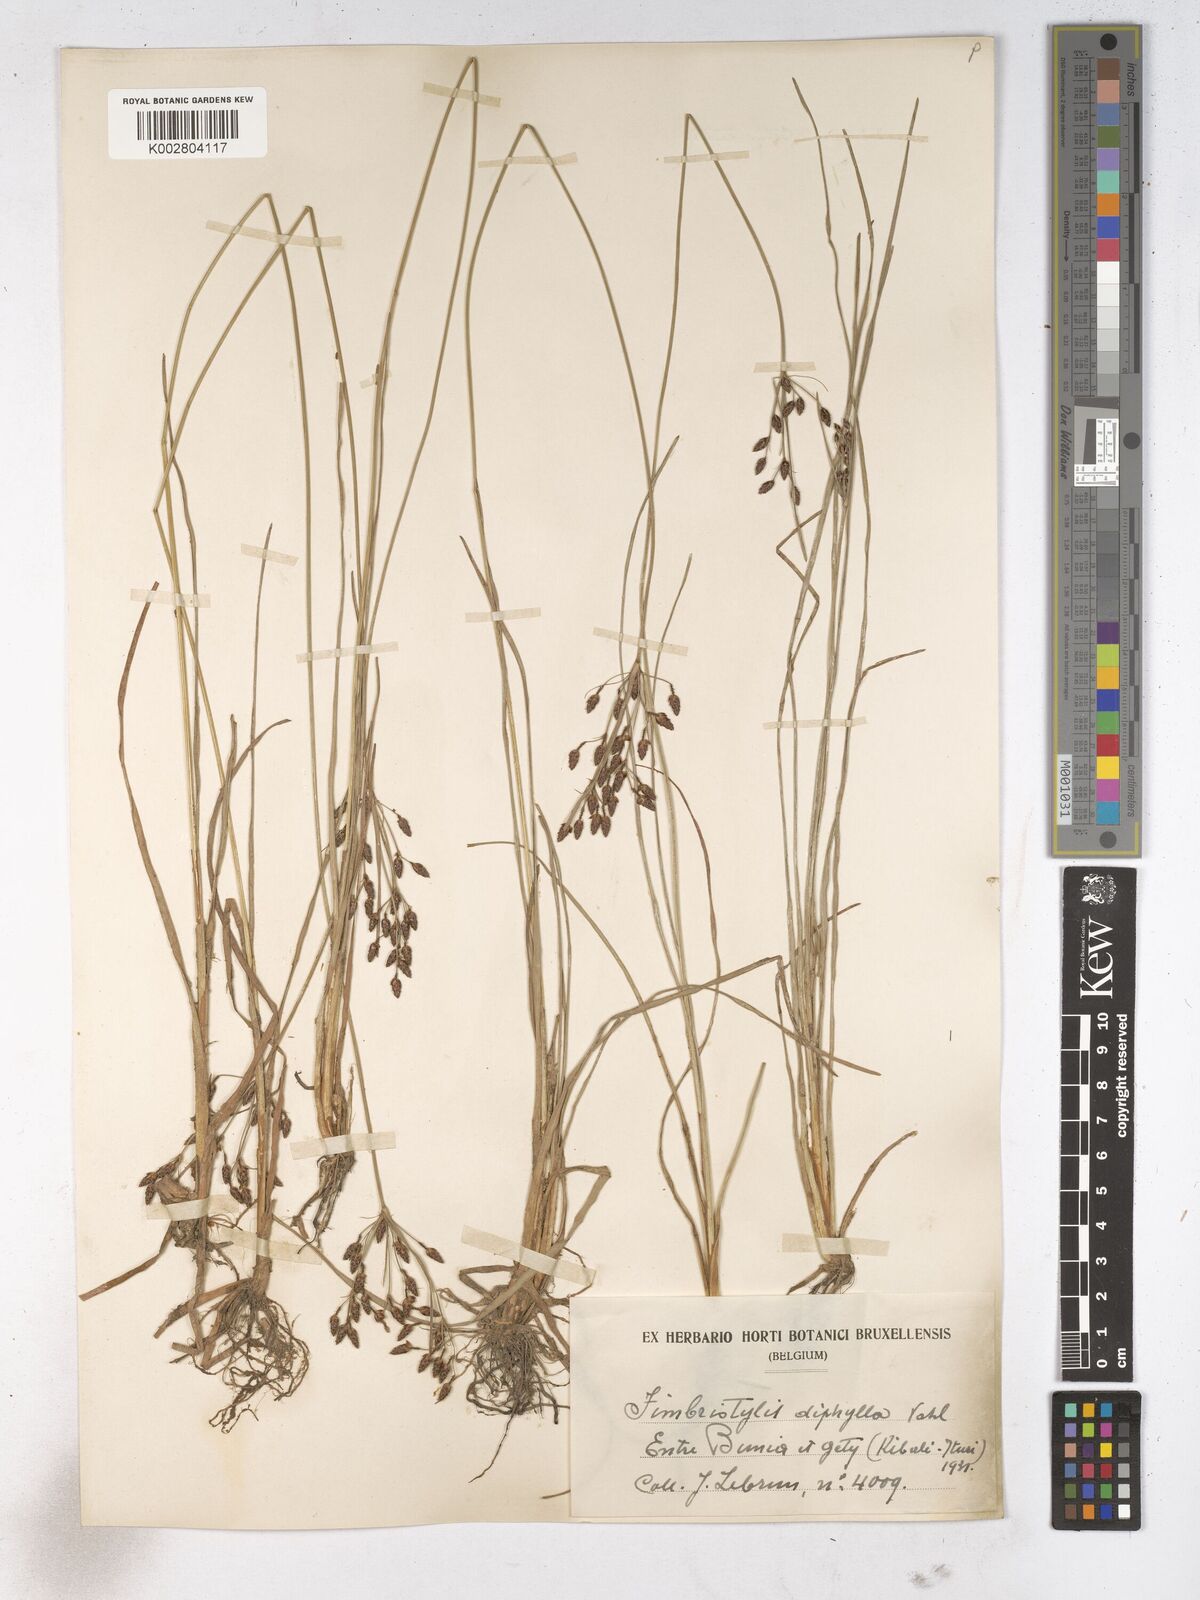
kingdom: Plantae
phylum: Tracheophyta
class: Liliopsida
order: Poales
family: Cyperaceae
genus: Fimbristylis
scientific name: Fimbristylis dichotoma
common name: Forked fimbry
